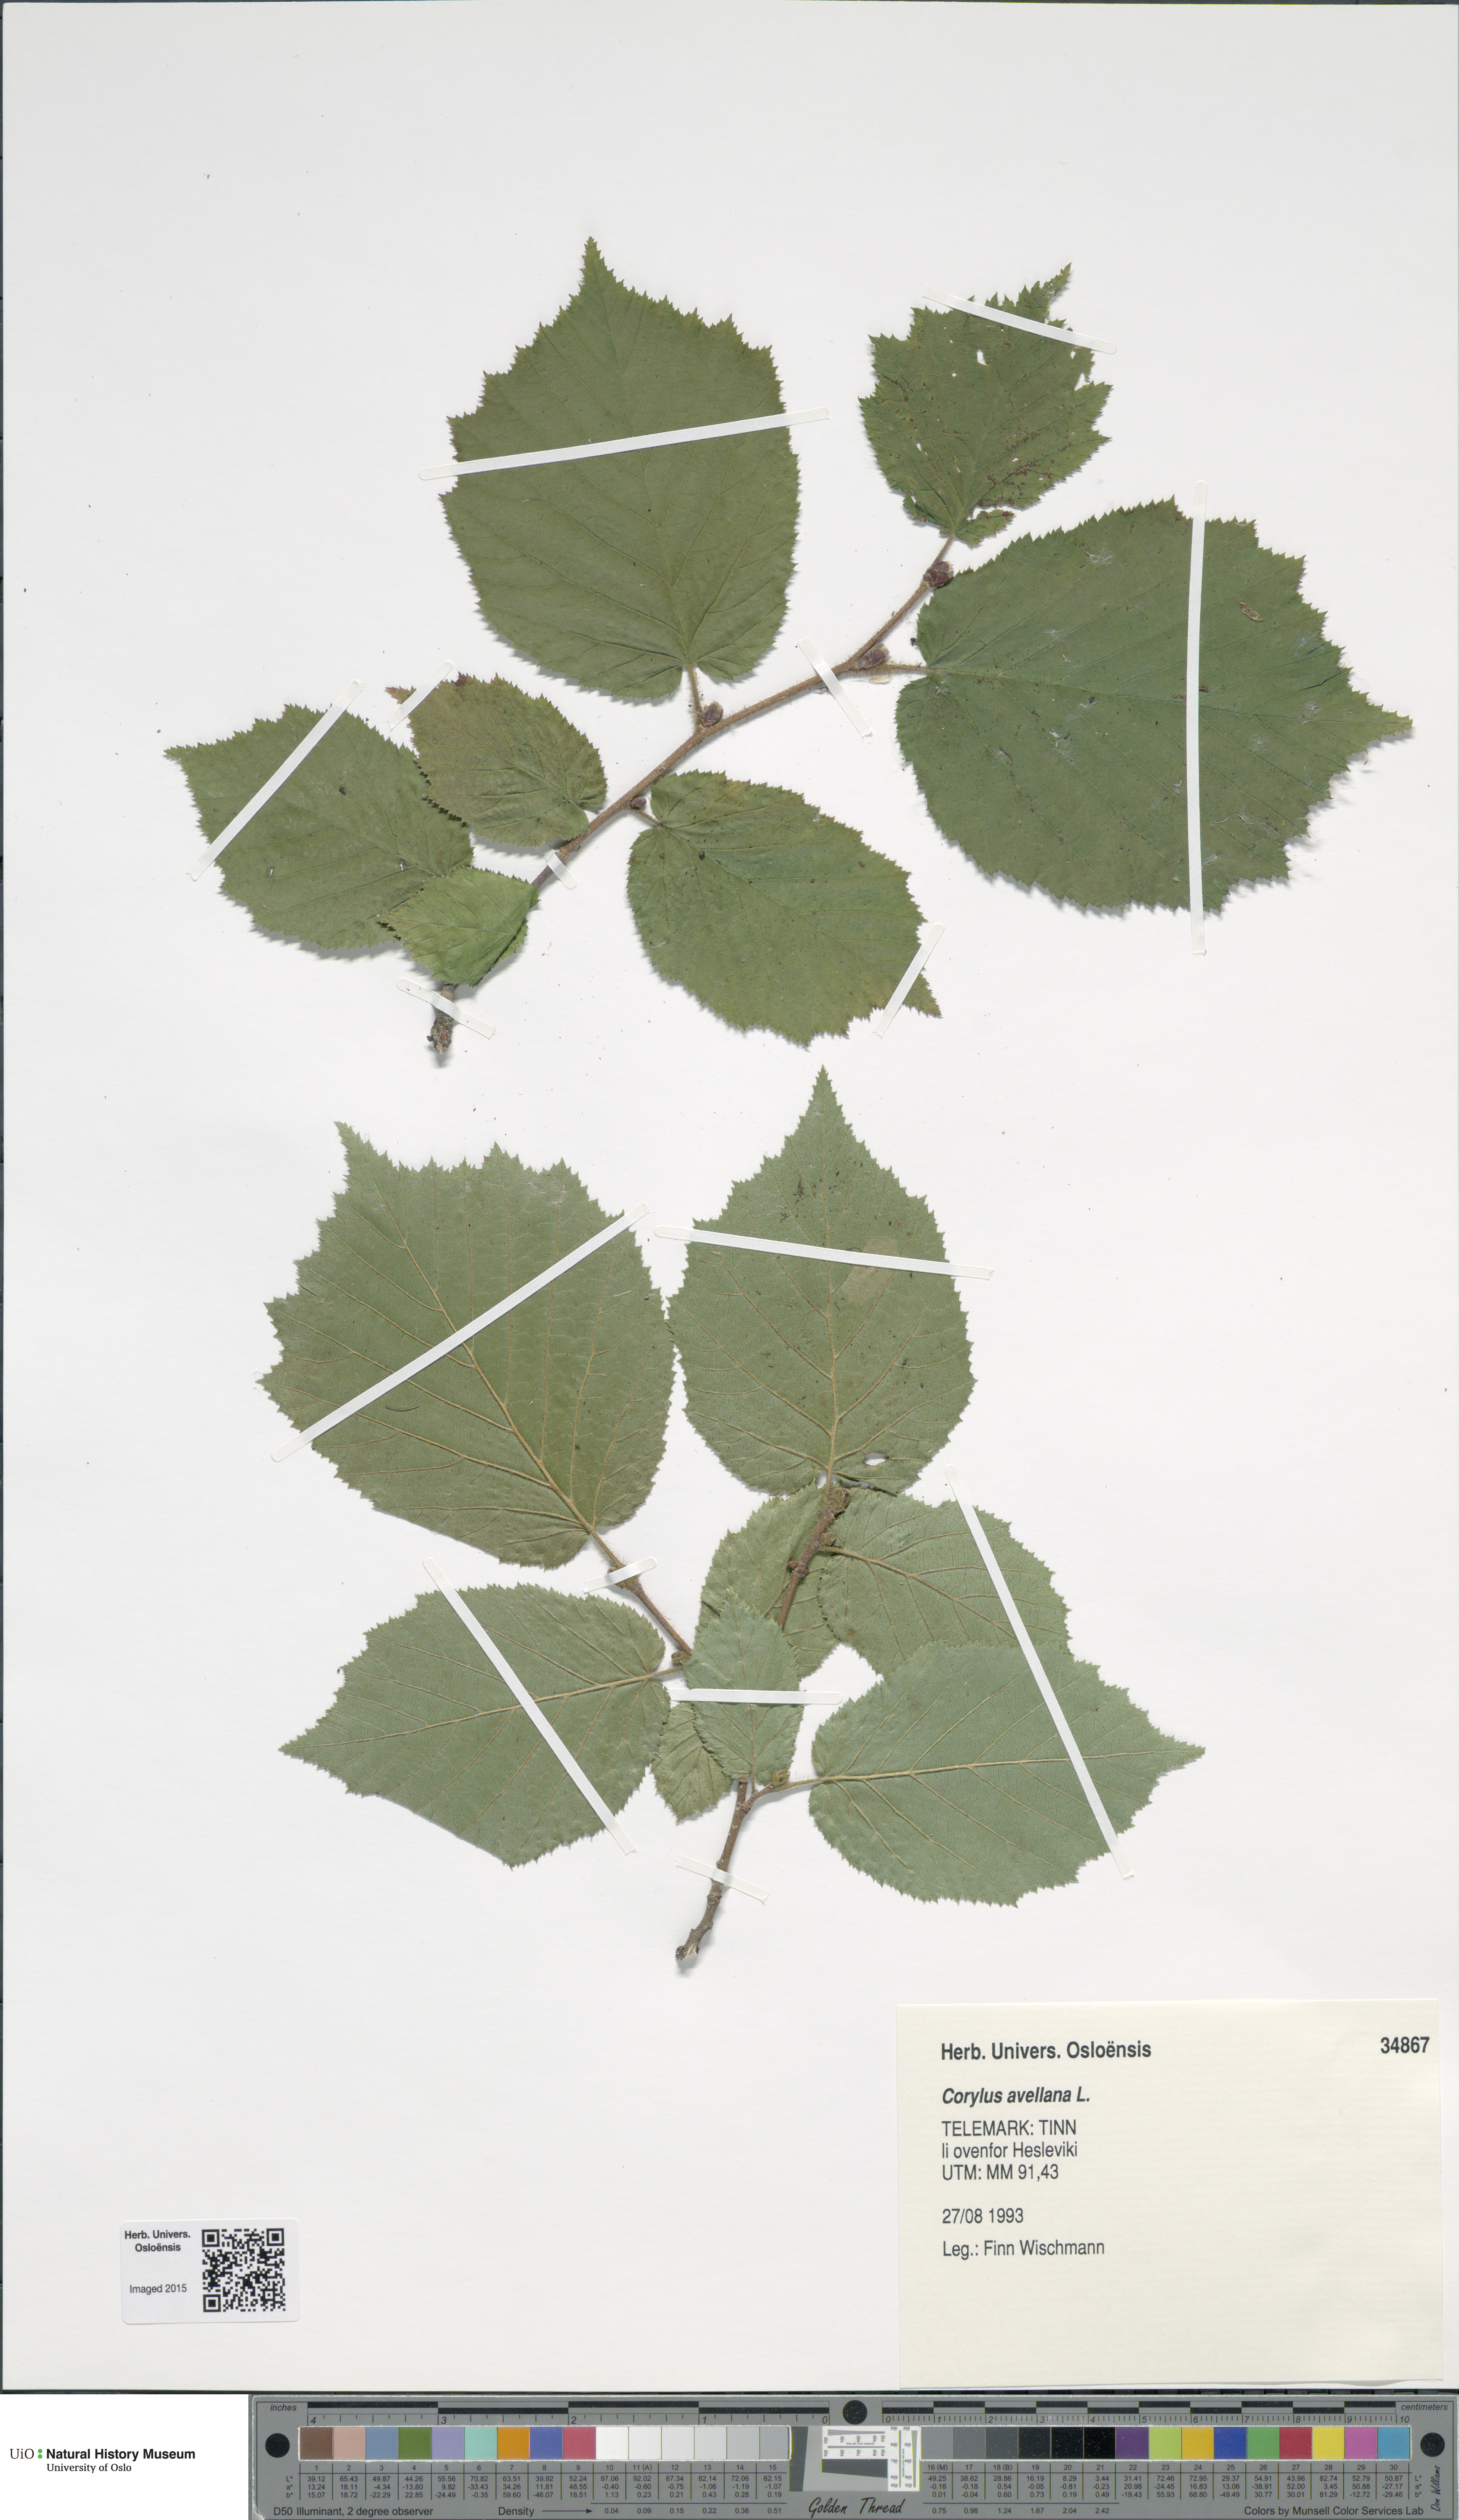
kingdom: Plantae
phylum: Tracheophyta
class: Magnoliopsida
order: Fagales
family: Betulaceae
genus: Corylus
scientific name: Corylus avellana
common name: European hazel
